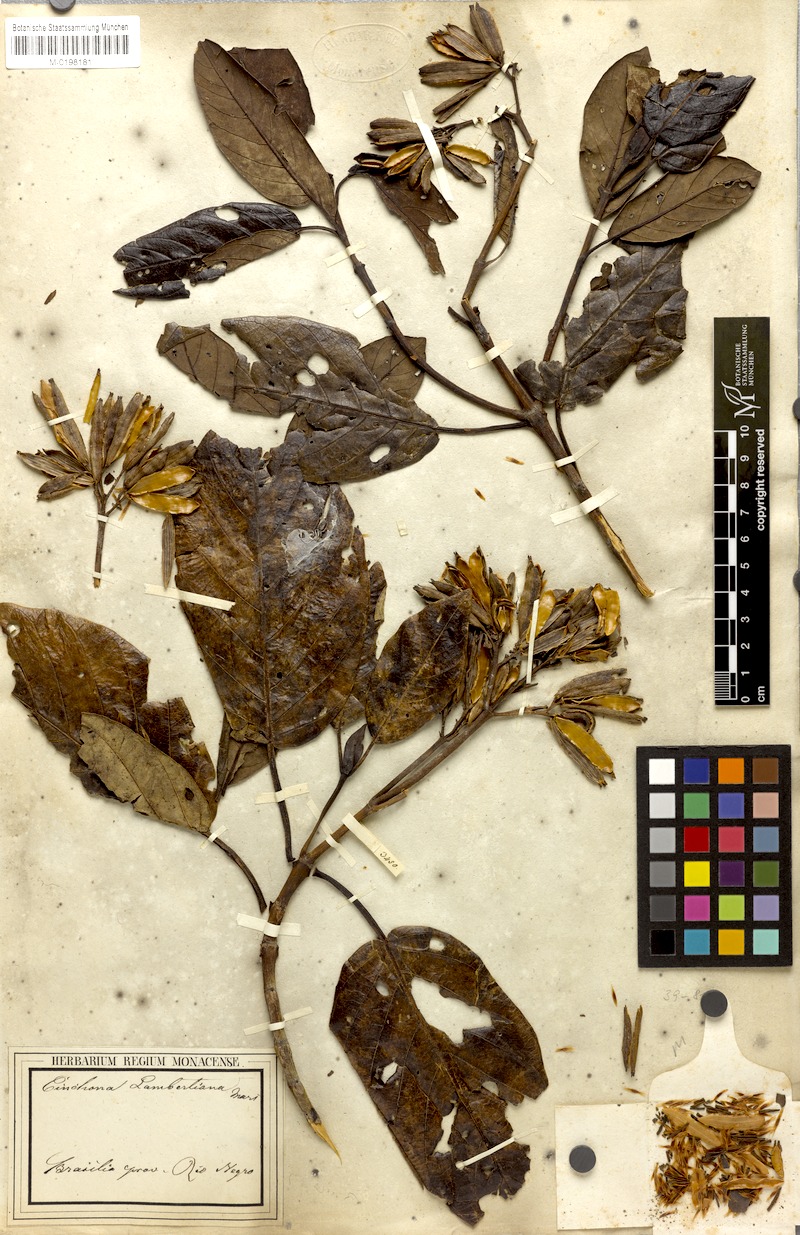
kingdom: Plantae
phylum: Tracheophyta
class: Magnoliopsida
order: Gentianales
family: Rubiaceae
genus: Ladenbergia
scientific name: Ladenbergia lambertiana
